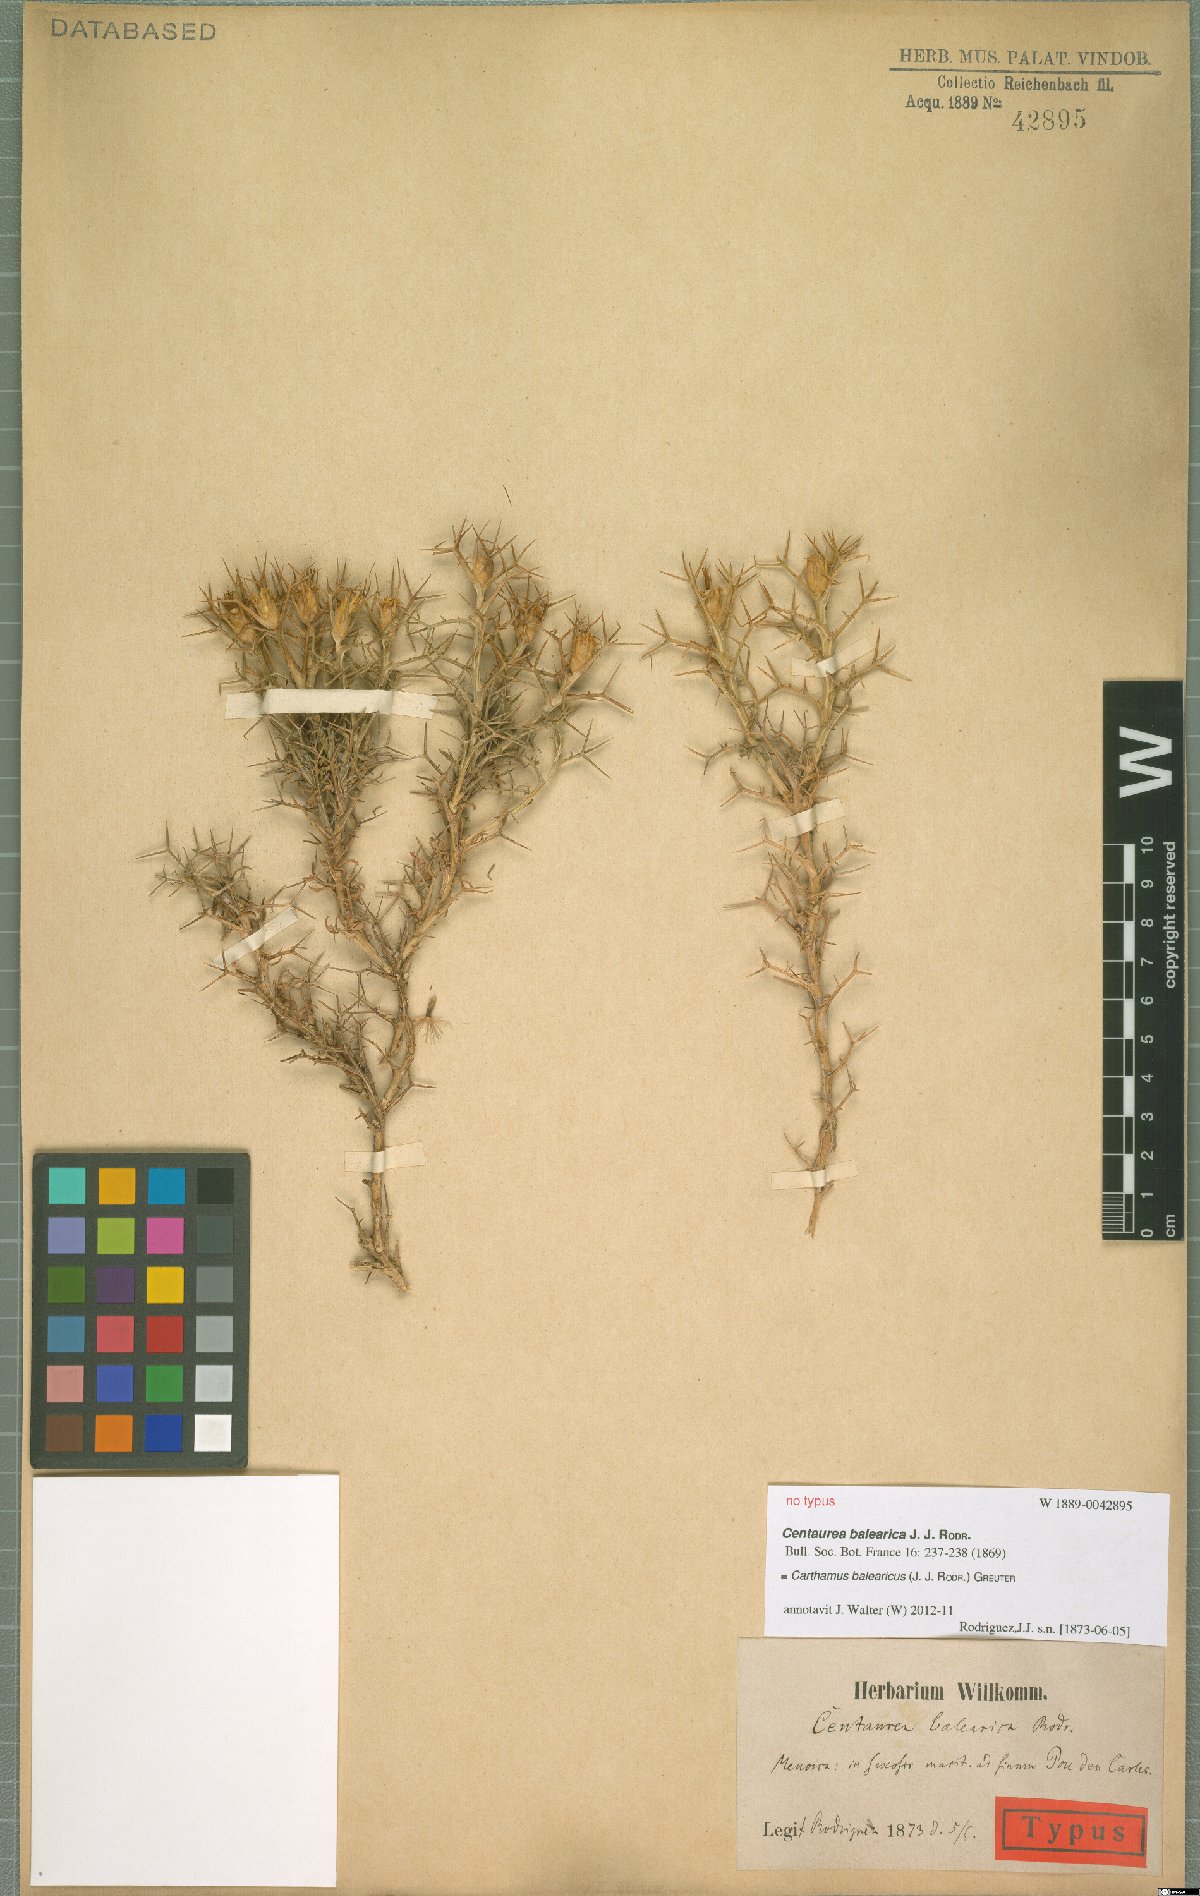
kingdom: Plantae
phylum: Tracheophyta
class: Magnoliopsida
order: Asterales
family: Asteraceae
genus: Carduncellus
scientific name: Carduncellus balearicus
